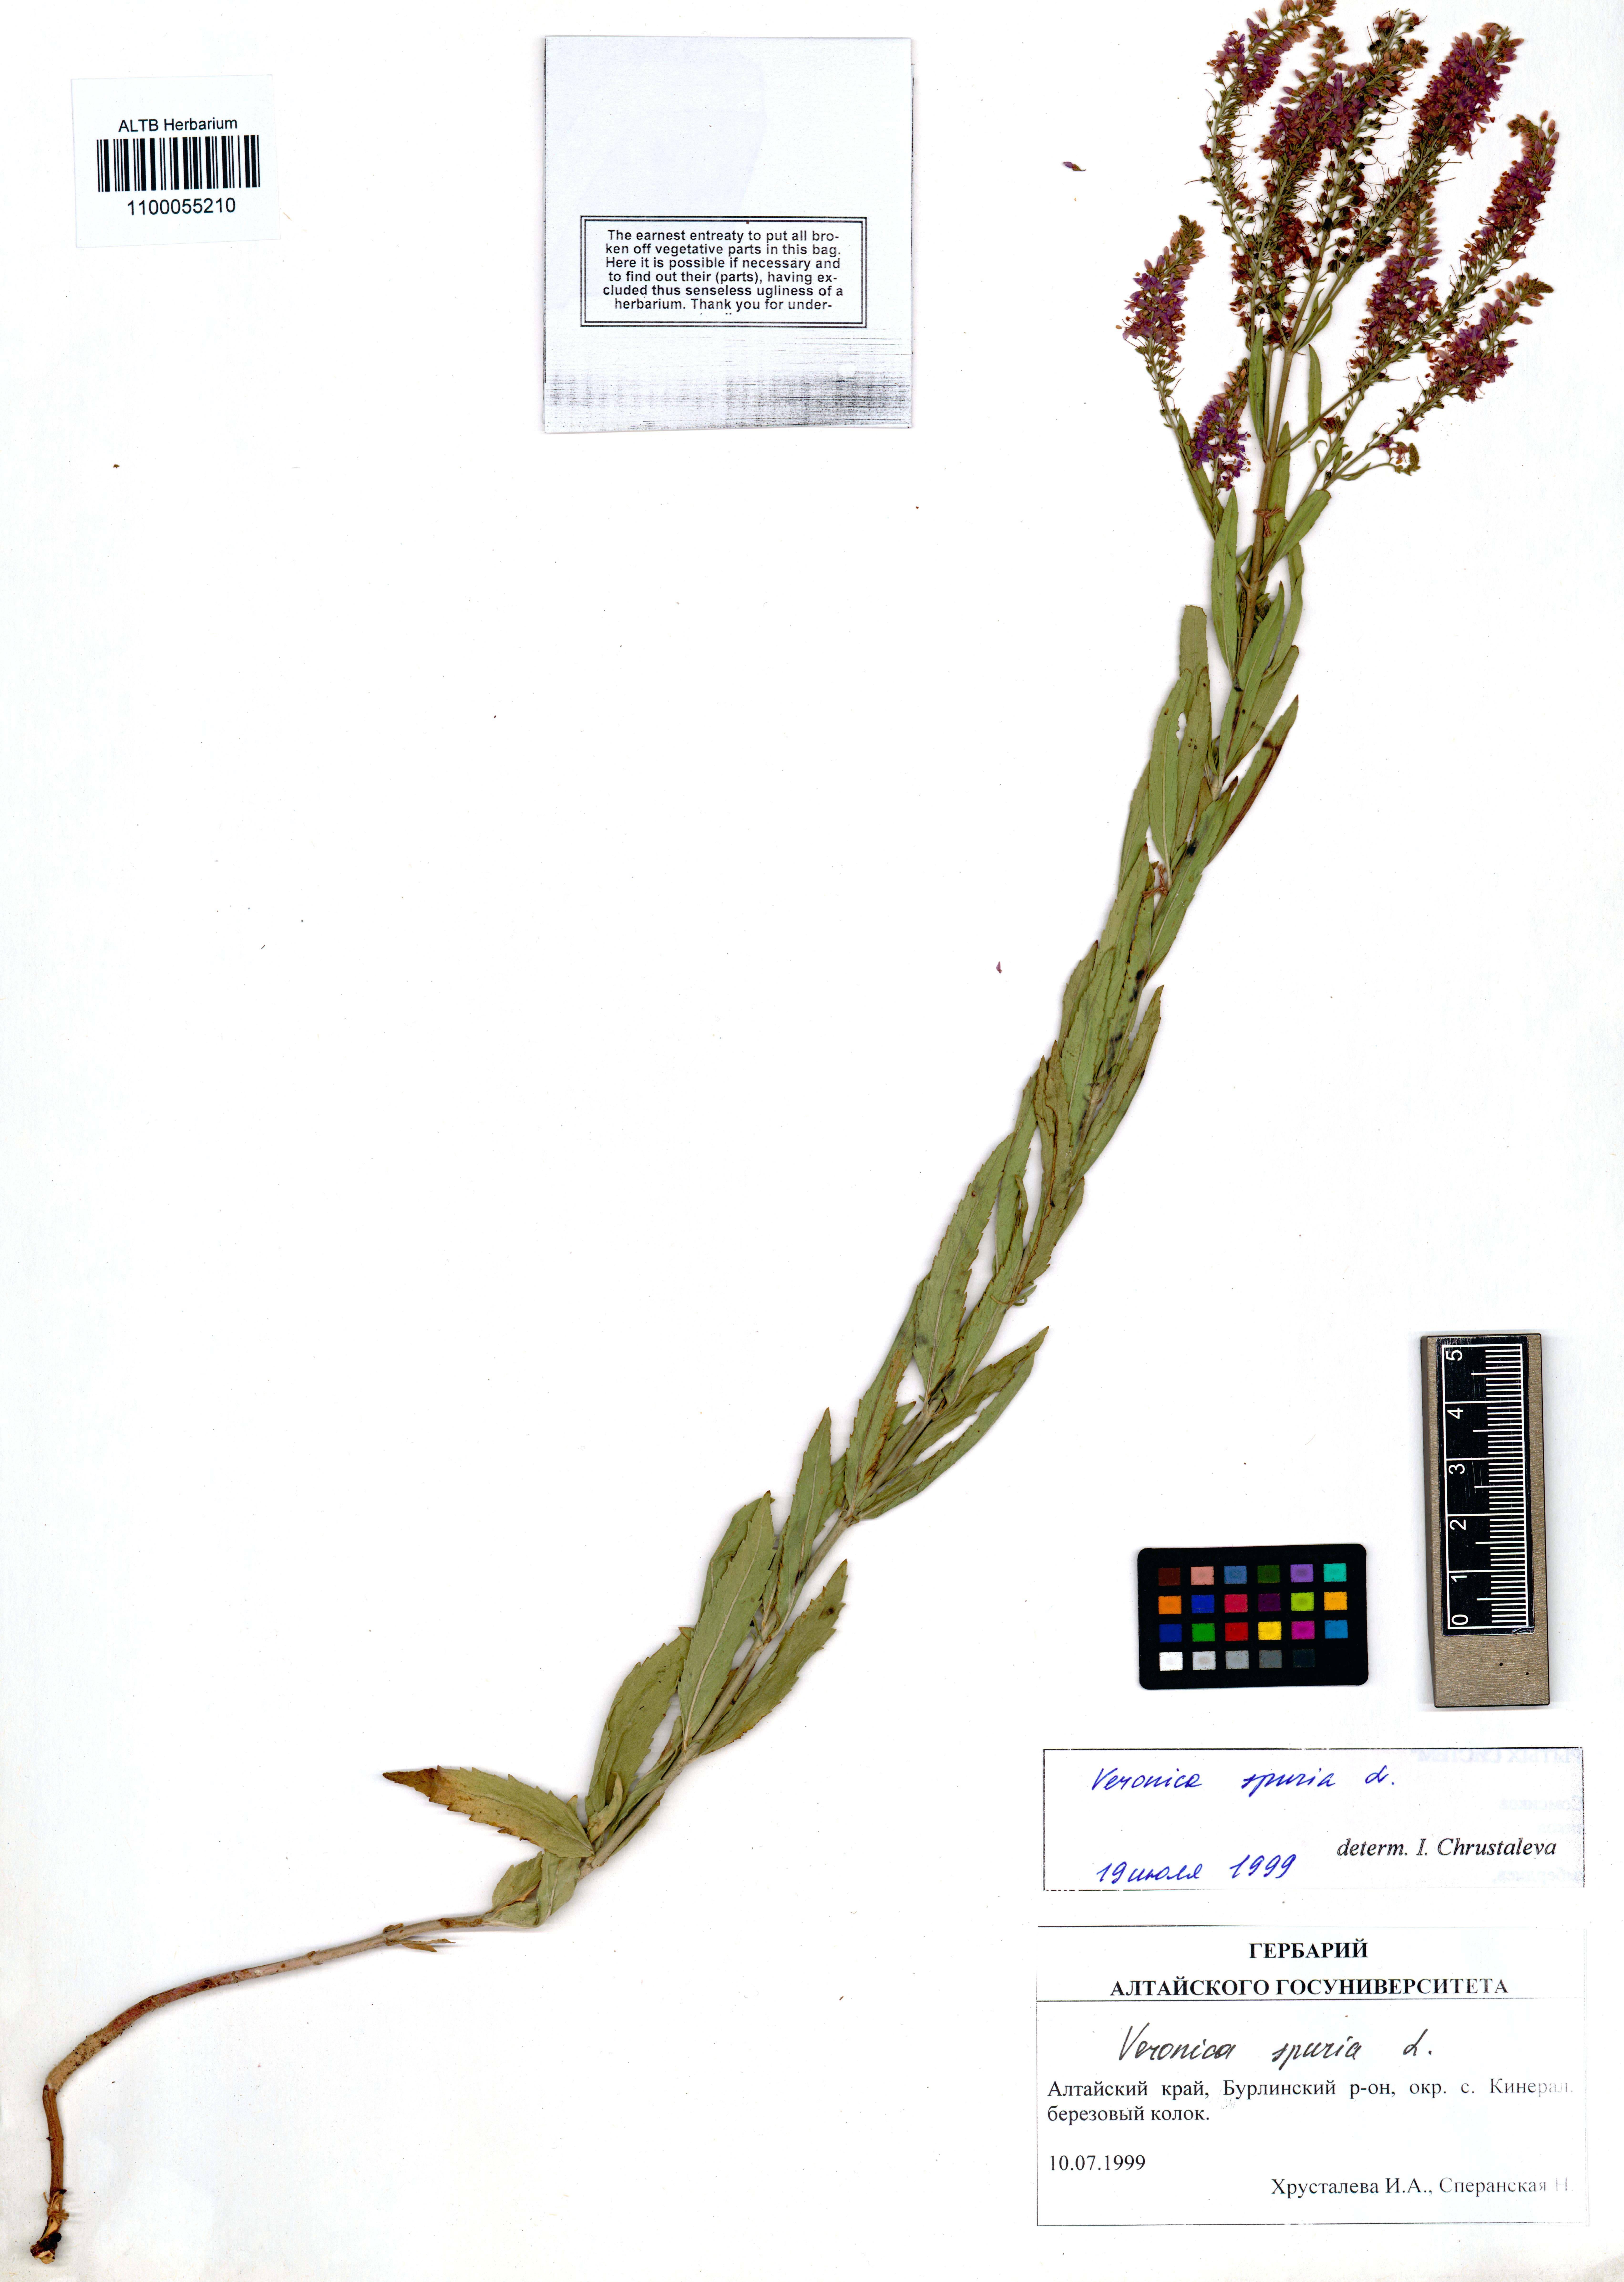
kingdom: Plantae
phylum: Tracheophyta
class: Magnoliopsida
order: Lamiales
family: Plantaginaceae
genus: Veronica
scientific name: Veronica spuria
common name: Bastard speedwell
